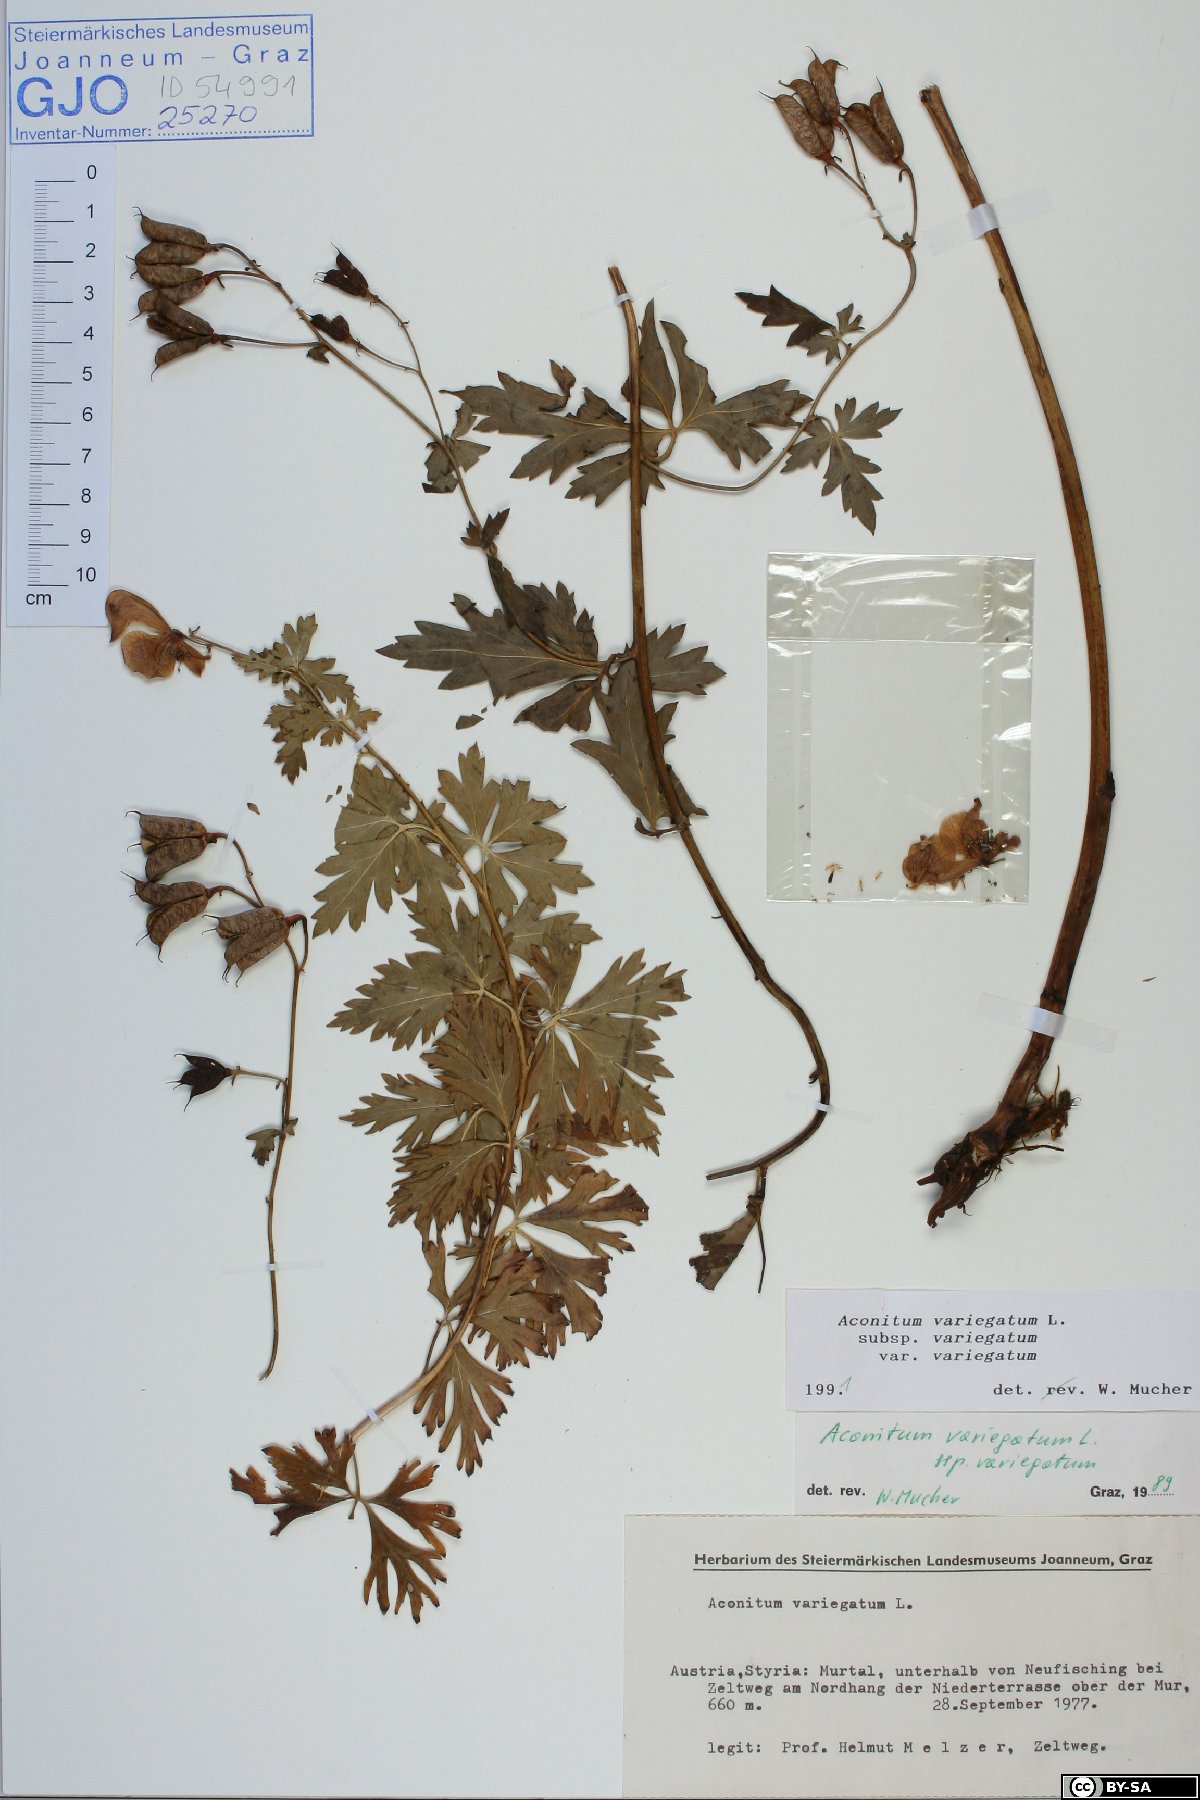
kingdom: Plantae
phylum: Tracheophyta
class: Magnoliopsida
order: Ranunculales
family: Ranunculaceae
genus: Aconitum
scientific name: Aconitum variegatum
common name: Manchurian monkshood
